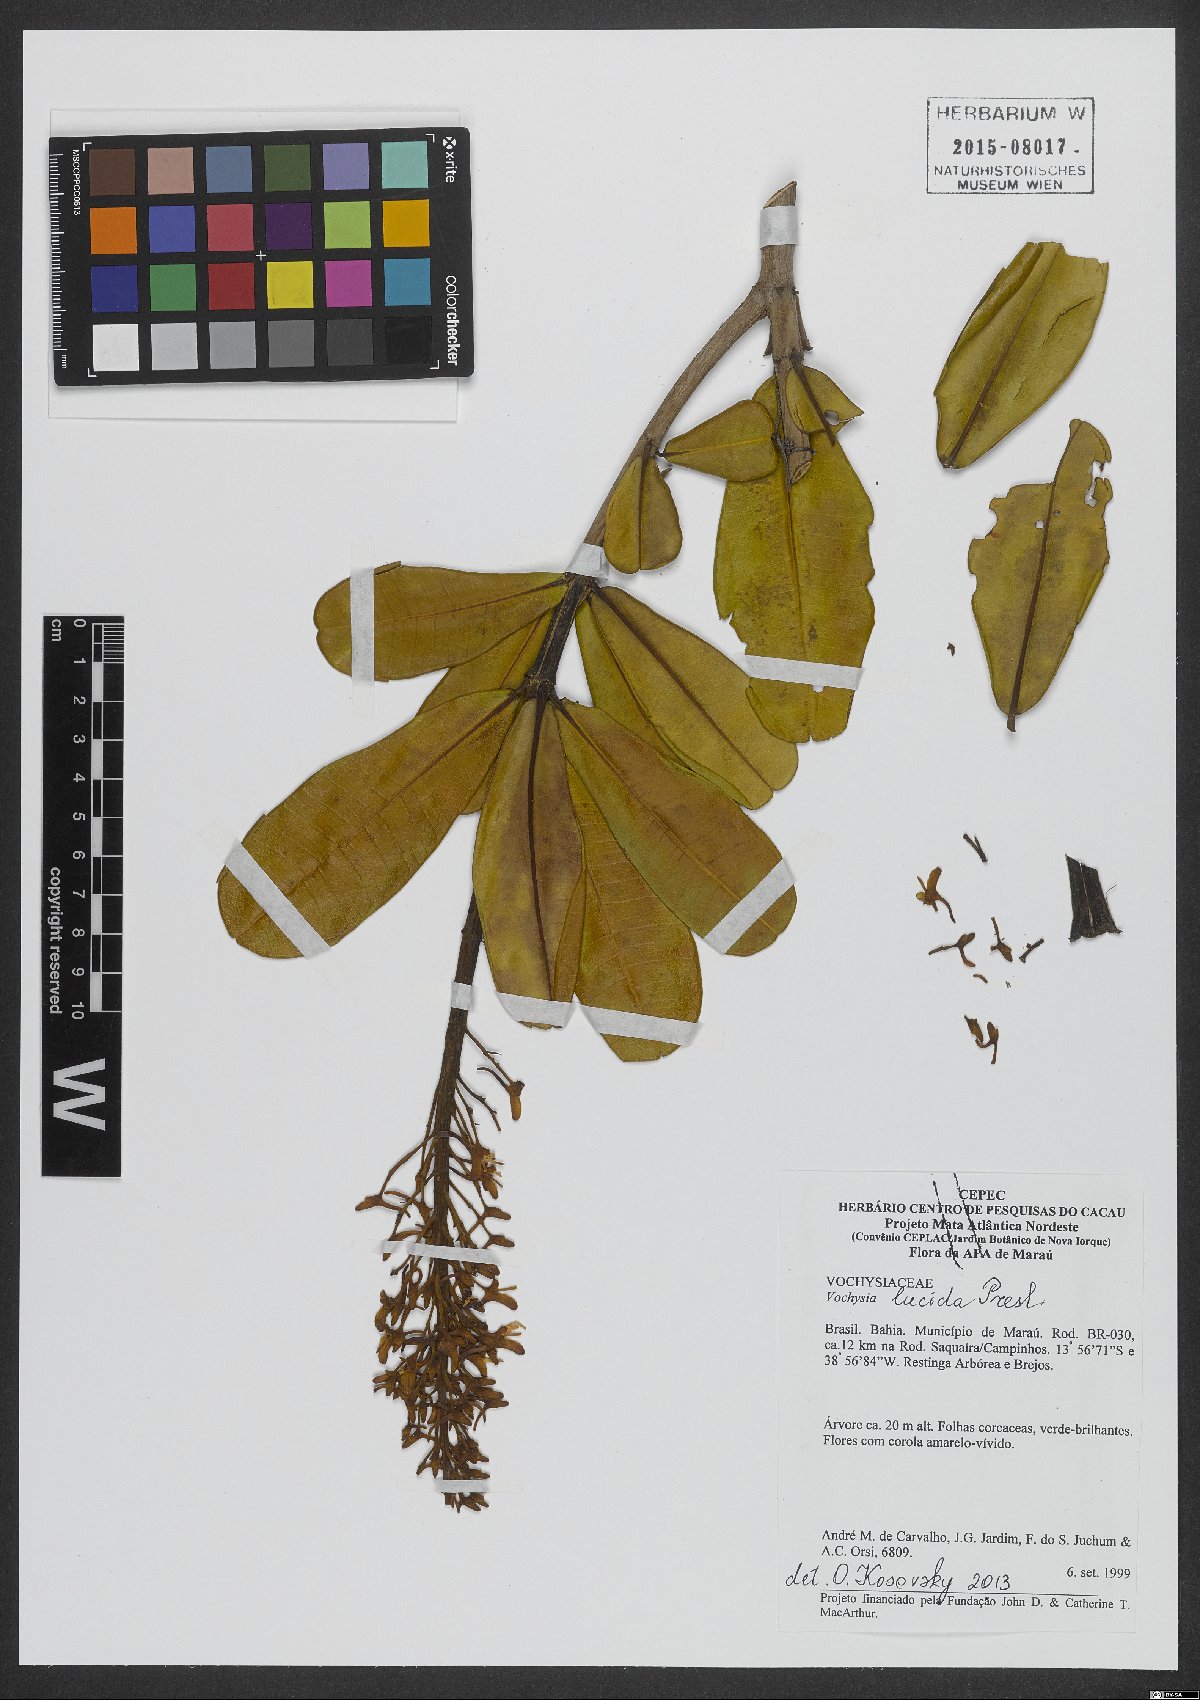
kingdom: Plantae
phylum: Tracheophyta
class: Magnoliopsida
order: Myrtales
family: Vochysiaceae
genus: Vochysia
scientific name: Vochysia lucida
